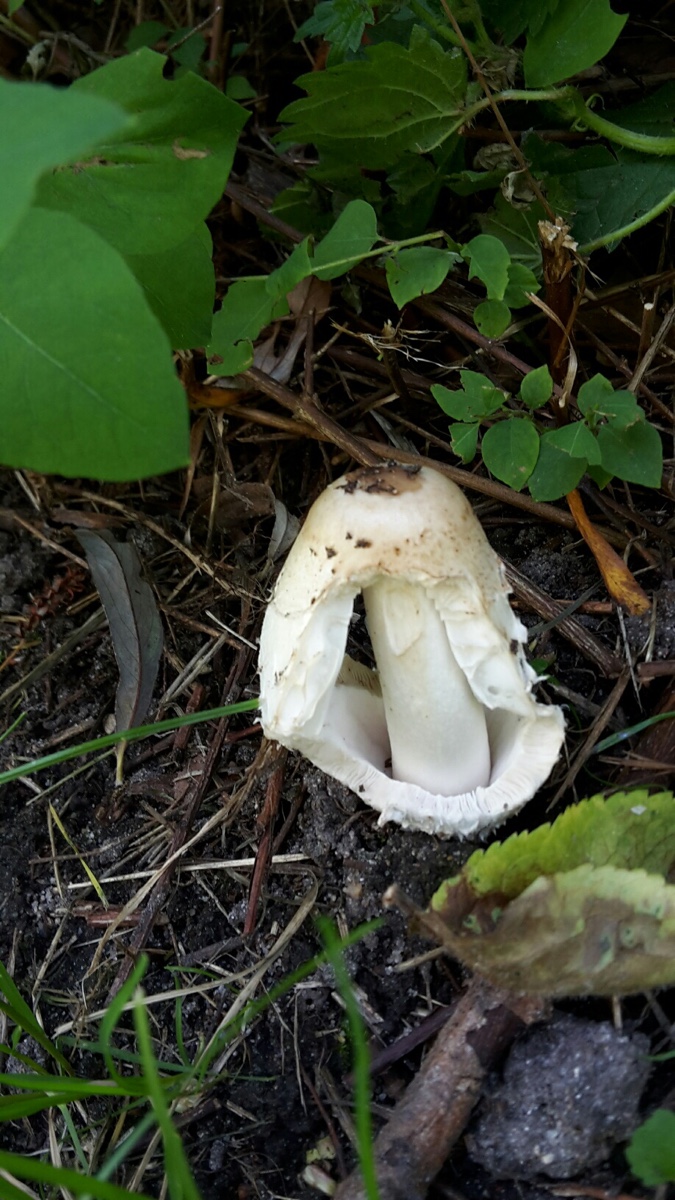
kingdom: Fungi
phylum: Basidiomycota
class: Agaricomycetes
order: Agaricales
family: Agaricaceae
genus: Coprinus
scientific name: Coprinus comatus
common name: stor parykhat
